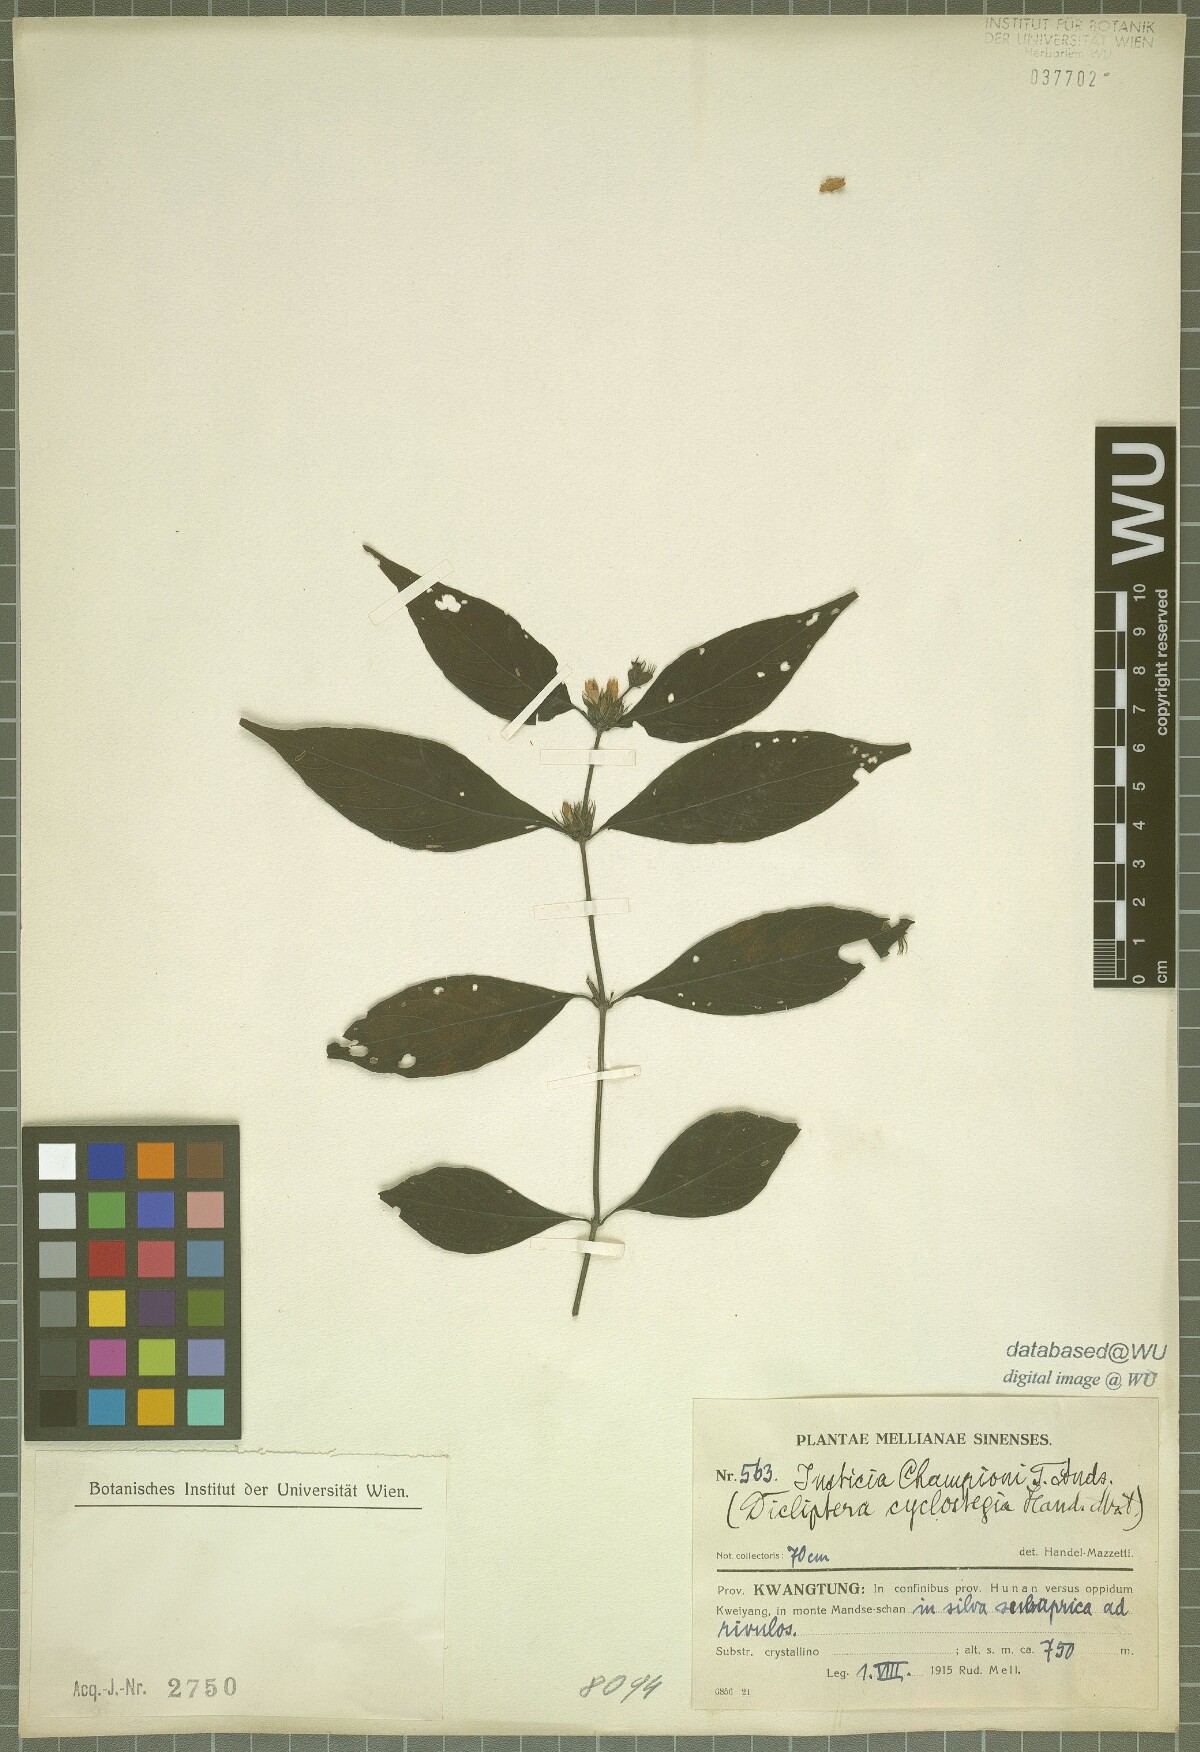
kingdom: Plantae
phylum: Tracheophyta
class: Magnoliopsida
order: Lamiales
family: Acanthaceae
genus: Justicia
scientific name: Justicia championii
